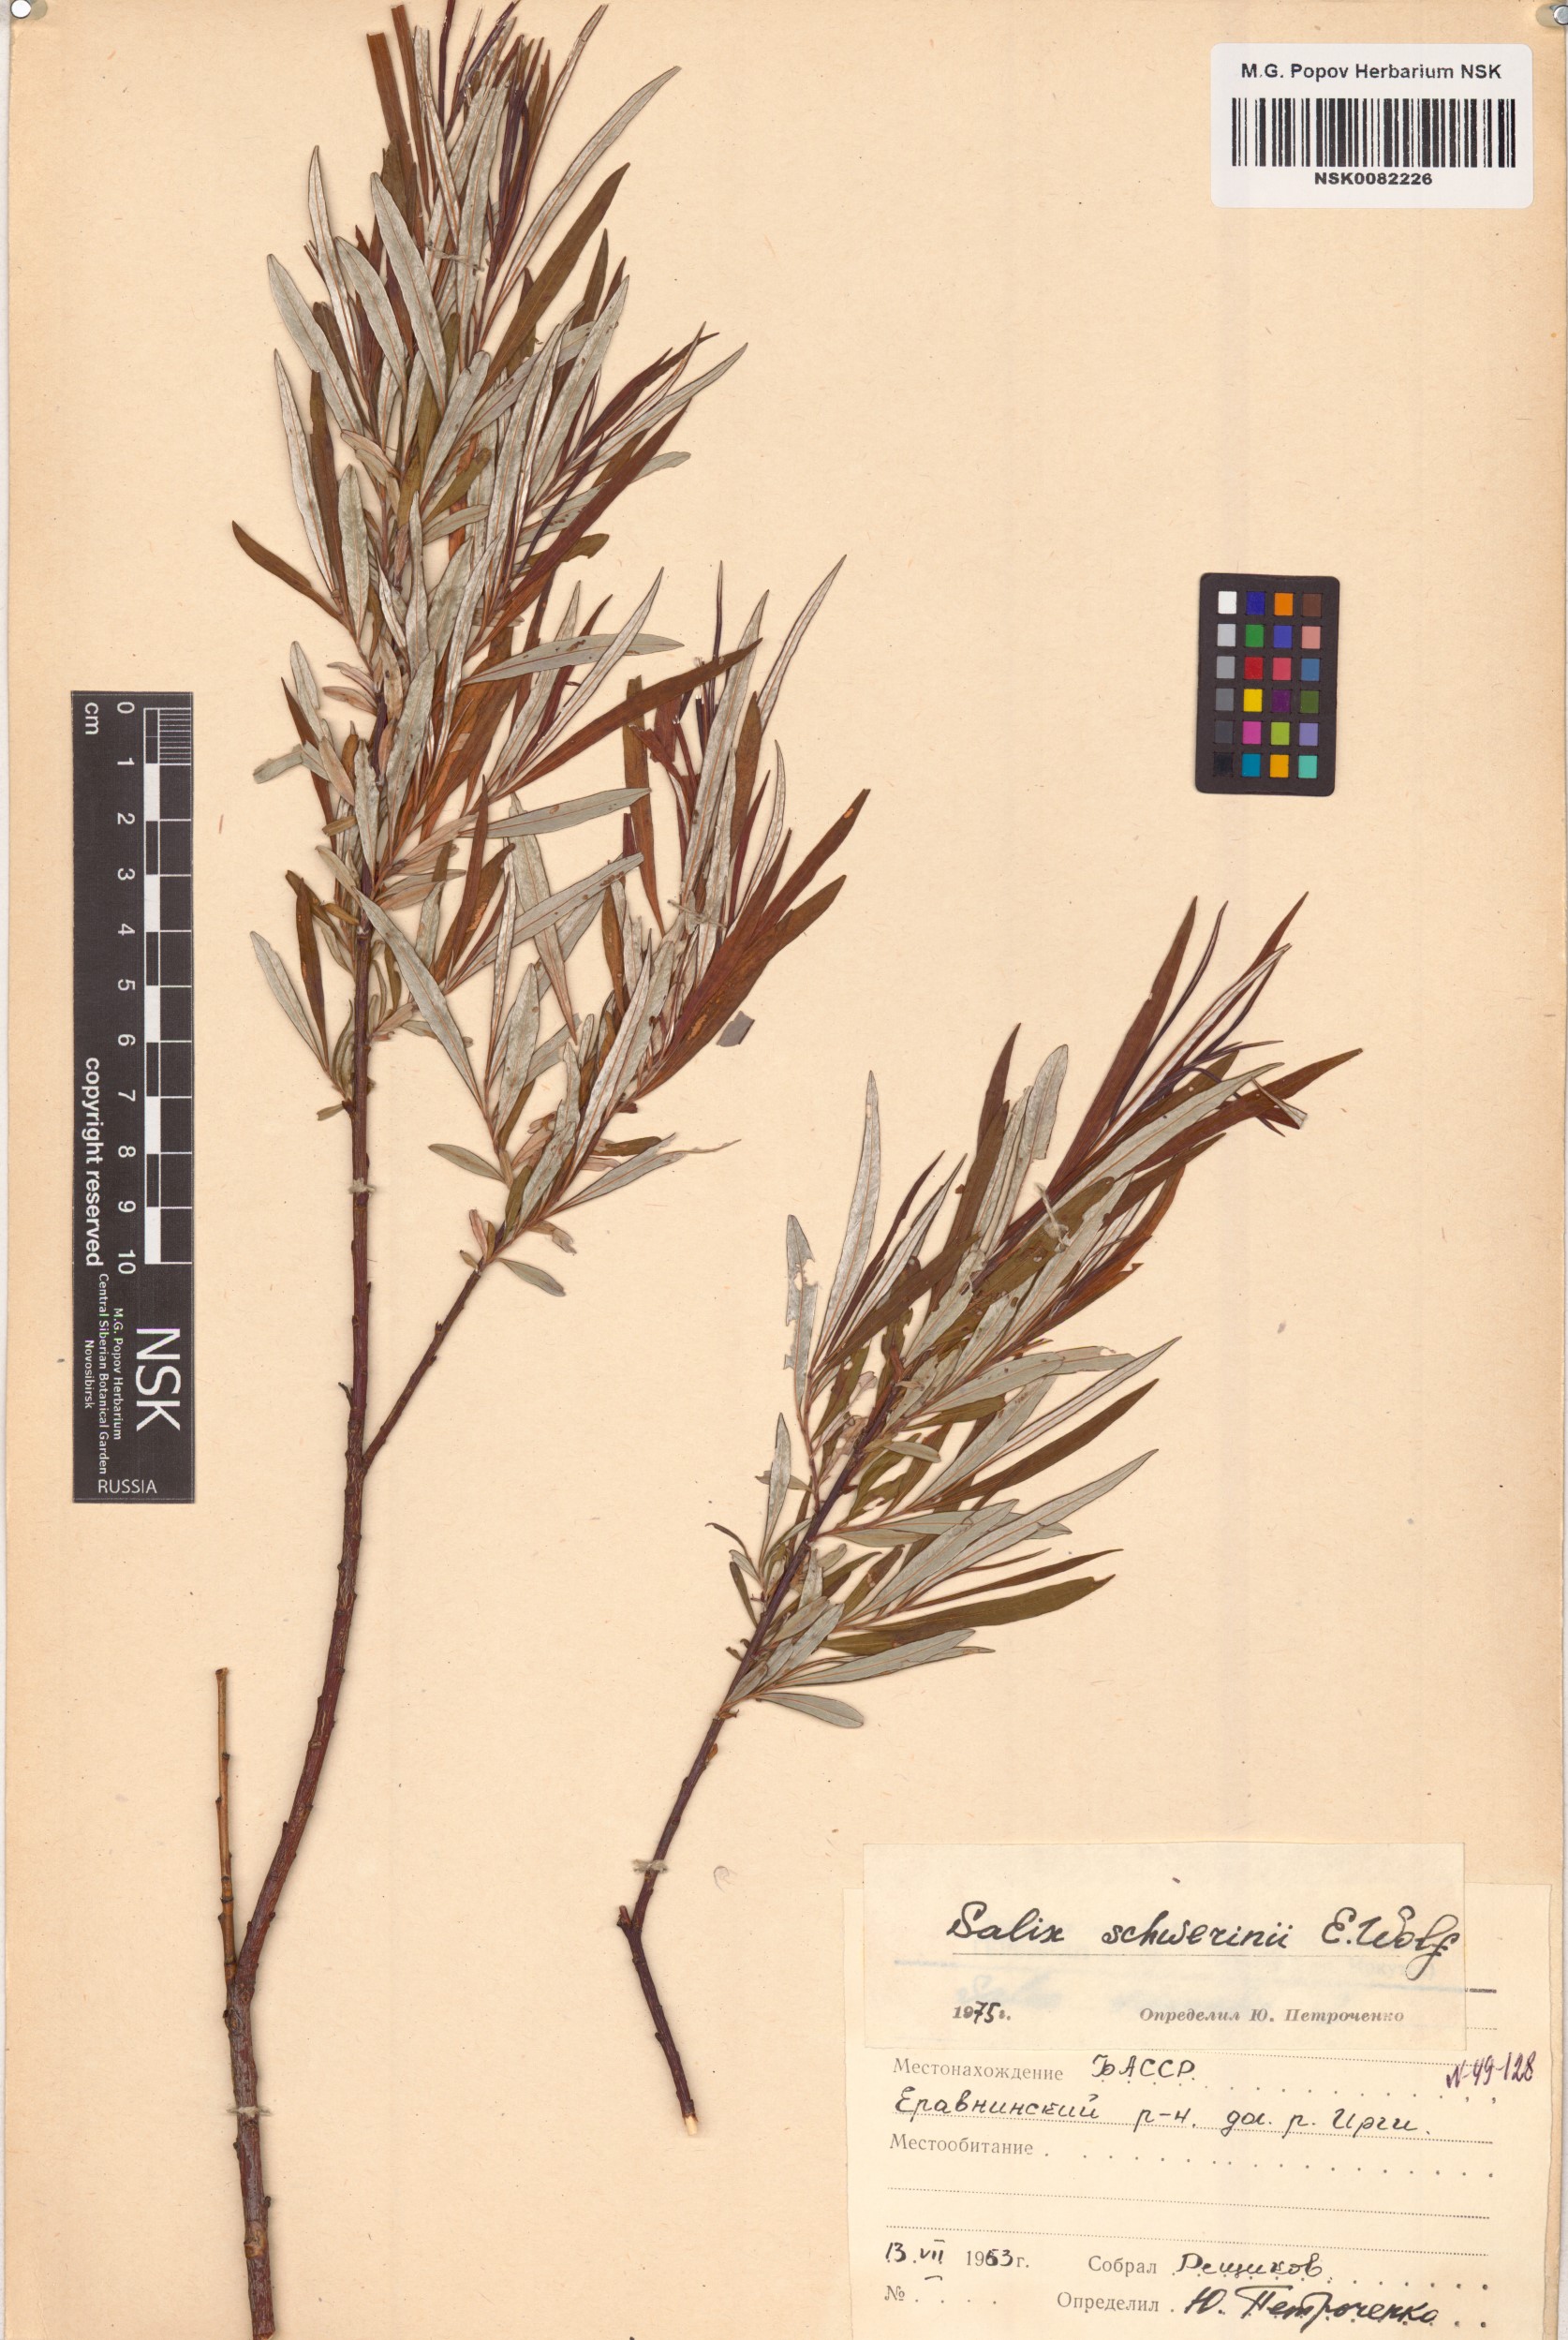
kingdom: Plantae
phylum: Tracheophyta
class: Magnoliopsida
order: Malpighiales
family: Salicaceae
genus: Salix
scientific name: Salix schwerinii
